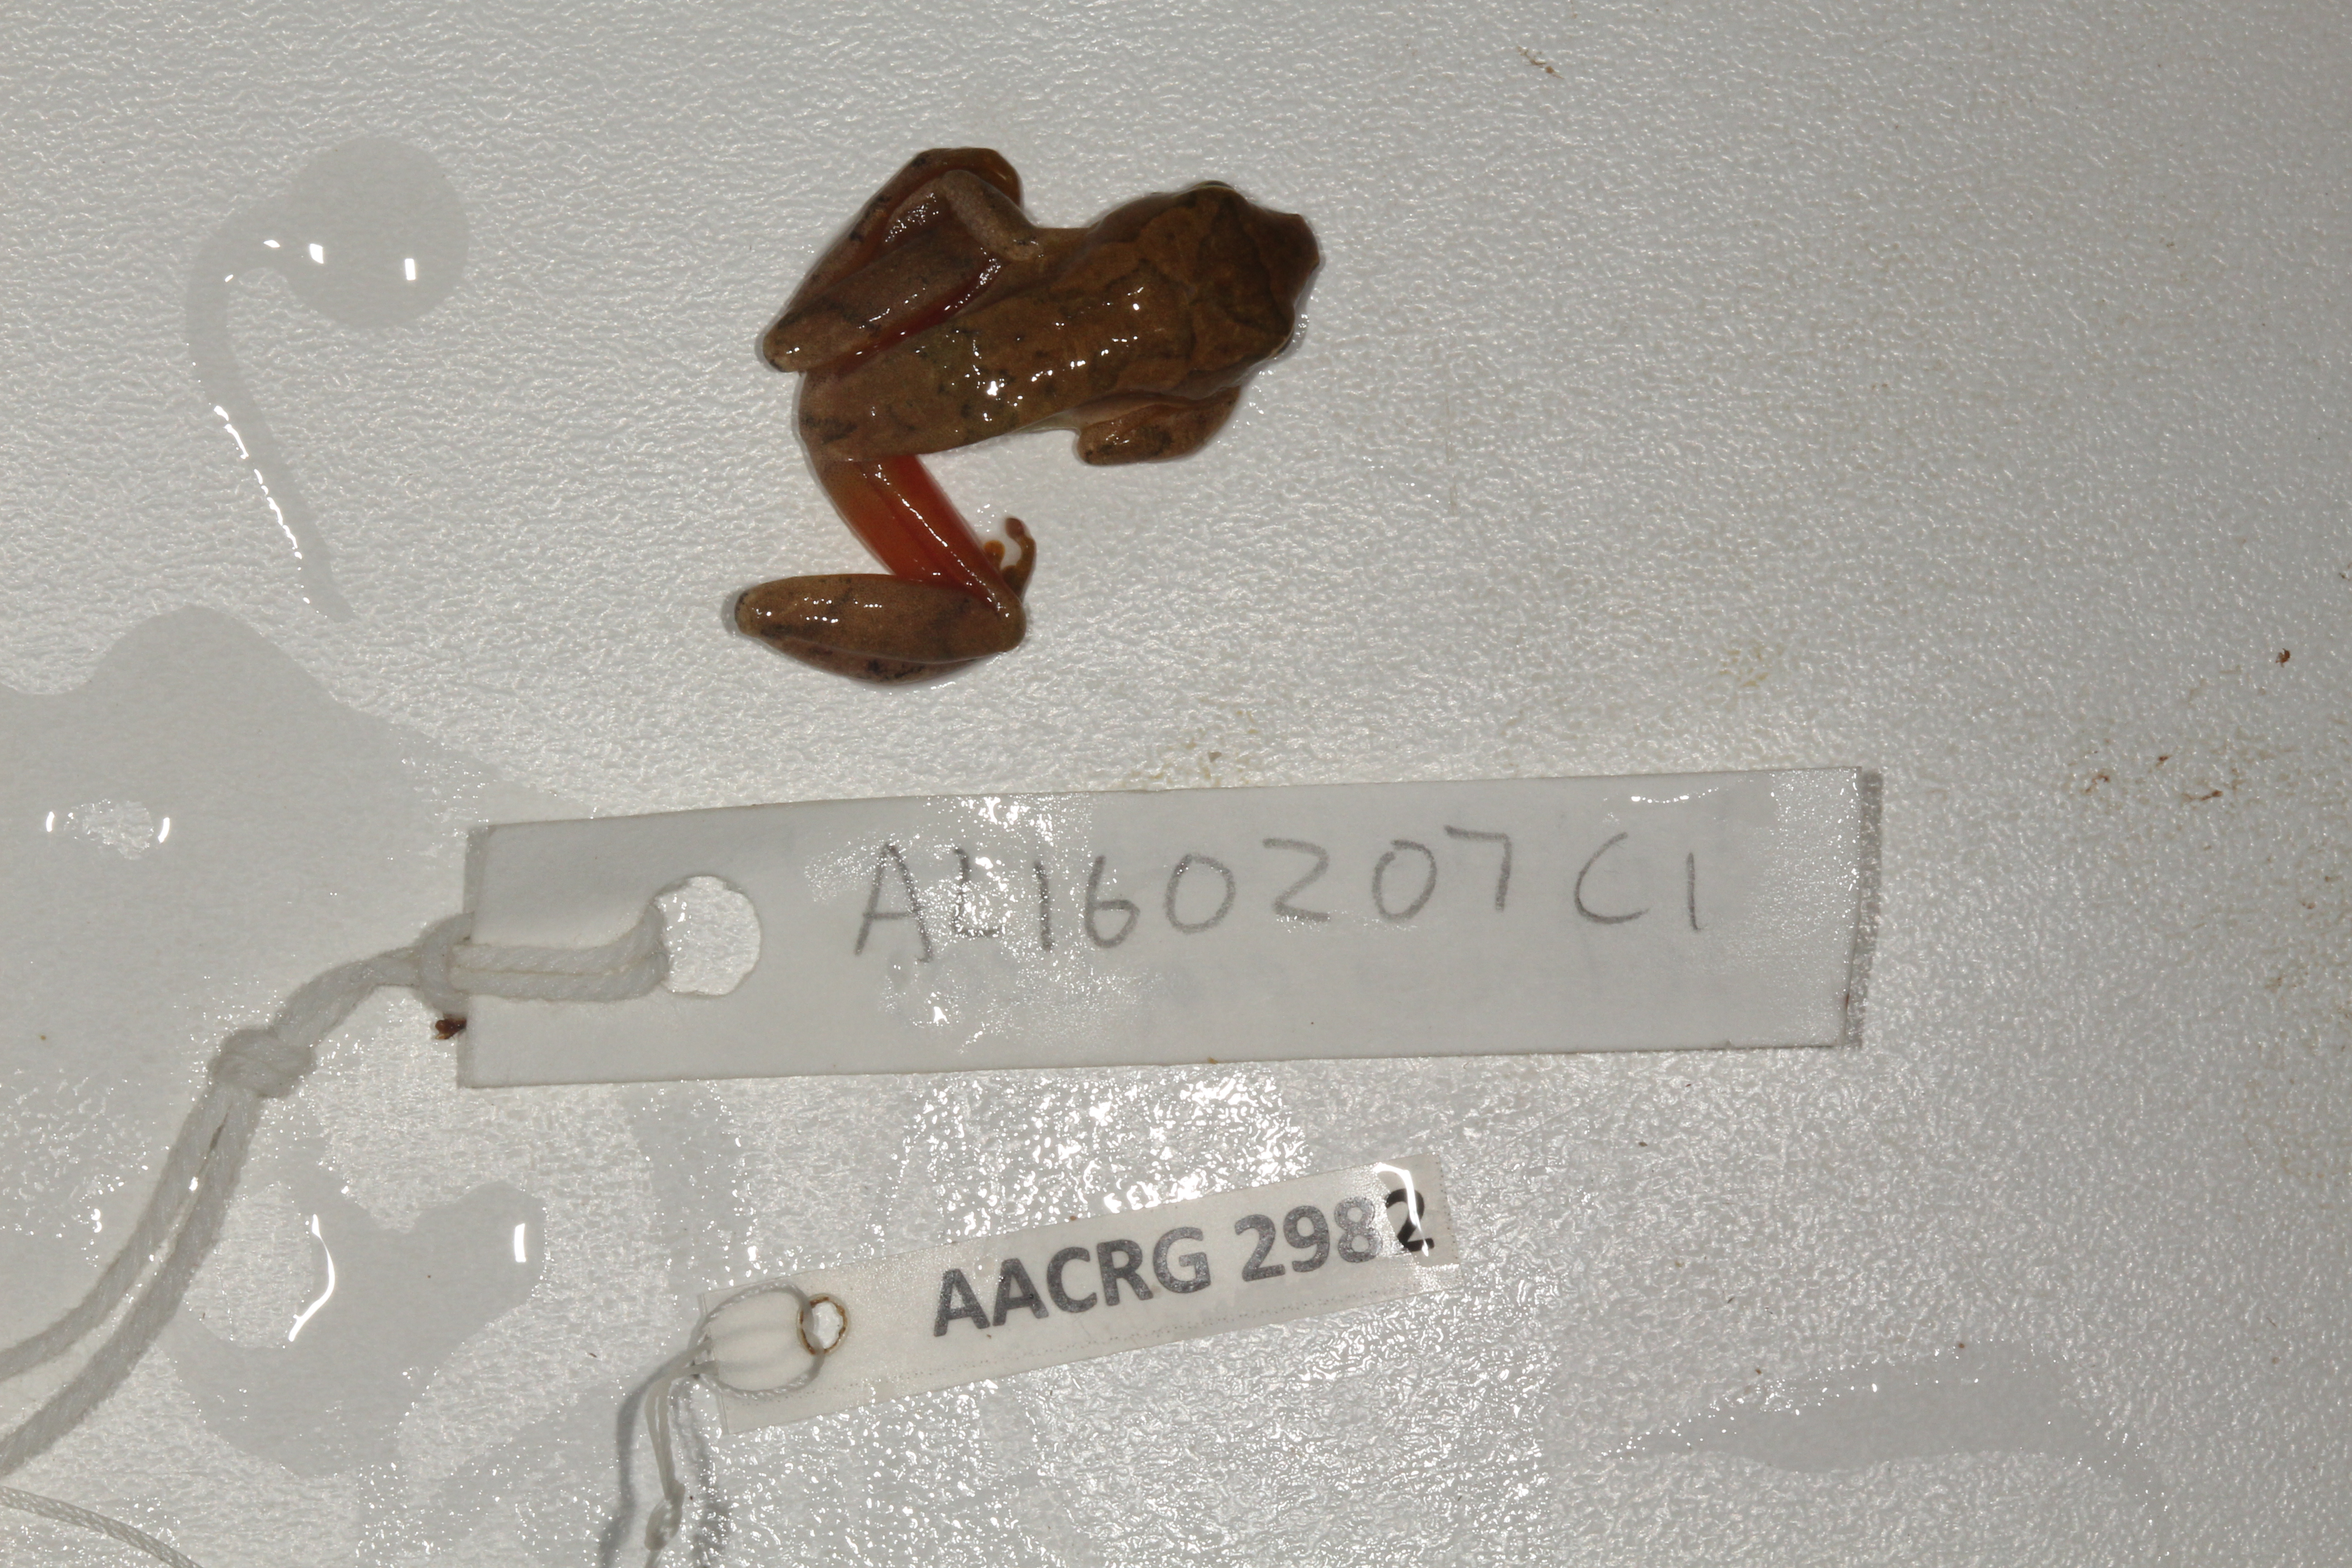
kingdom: Animalia
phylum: Chordata
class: Amphibia
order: Anura
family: Hyperoliidae
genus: Hyperolius
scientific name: Hyperolius tuberilinguis
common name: Tinker reed frog
